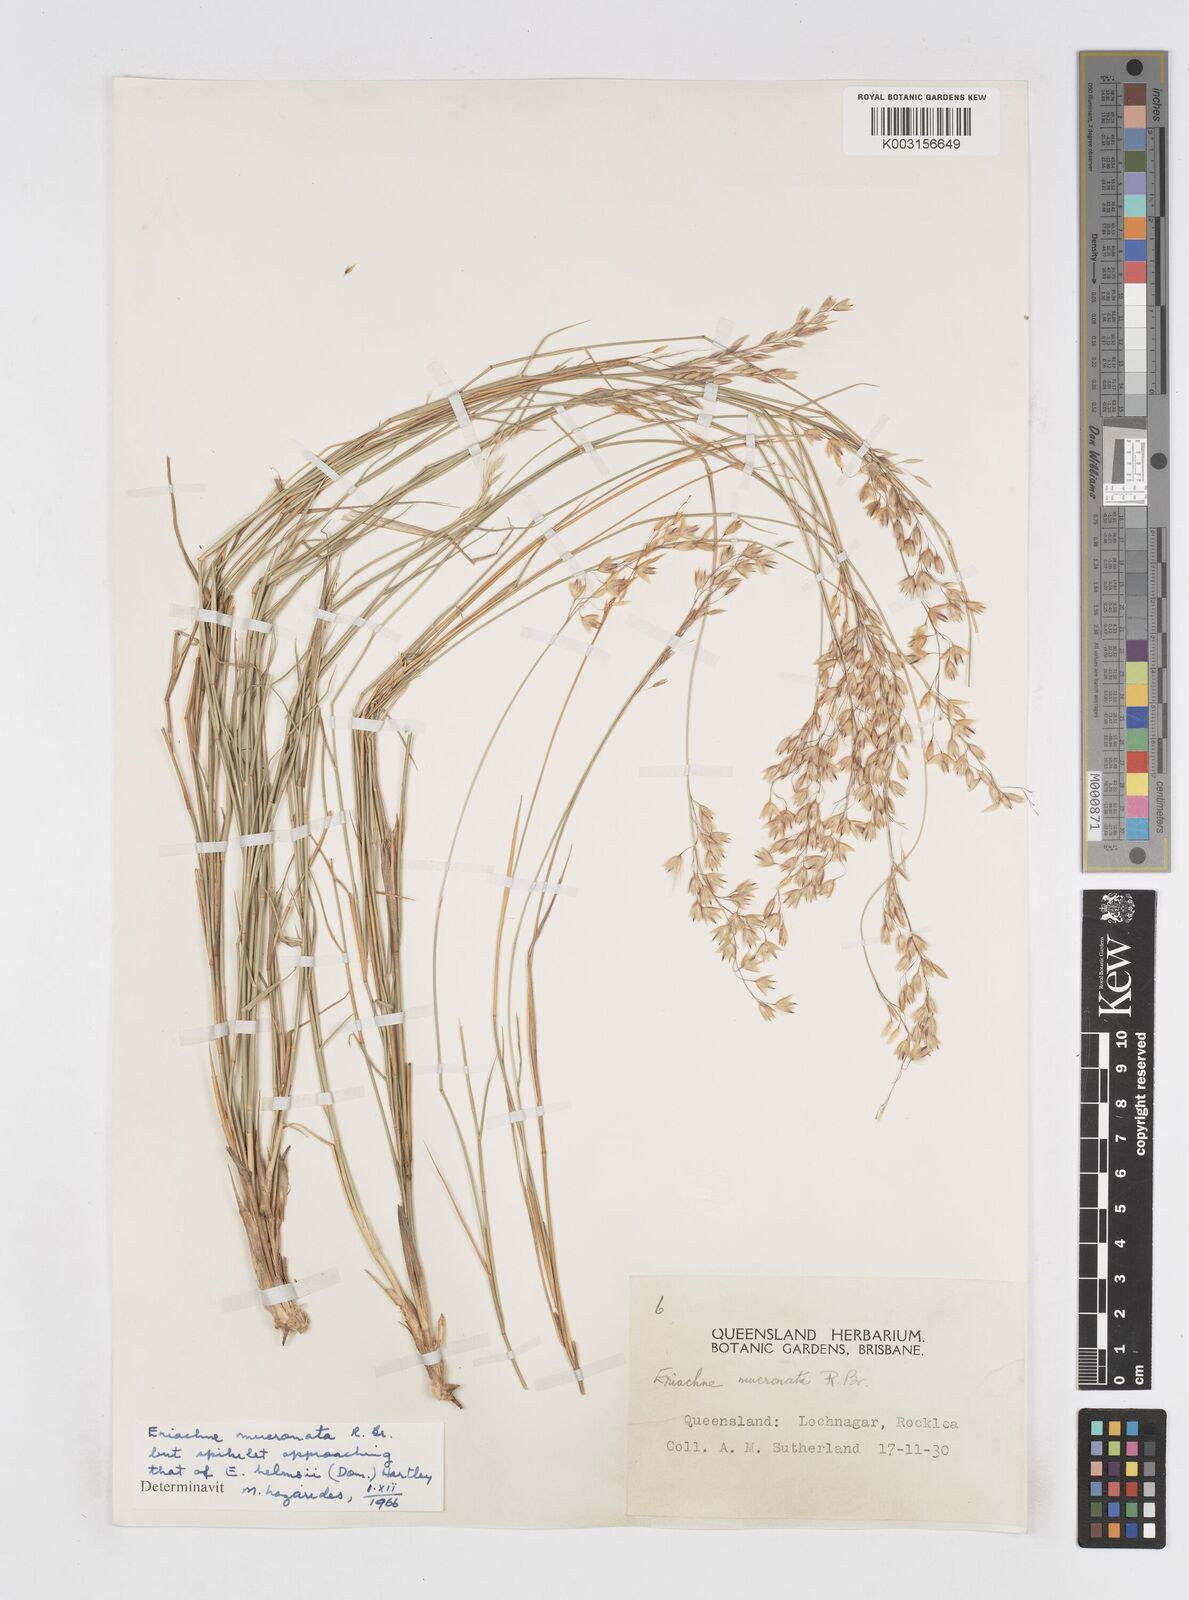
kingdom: Plantae
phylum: Tracheophyta
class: Liliopsida
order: Poales
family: Poaceae
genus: Eriachne
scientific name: Eriachne helmsii
